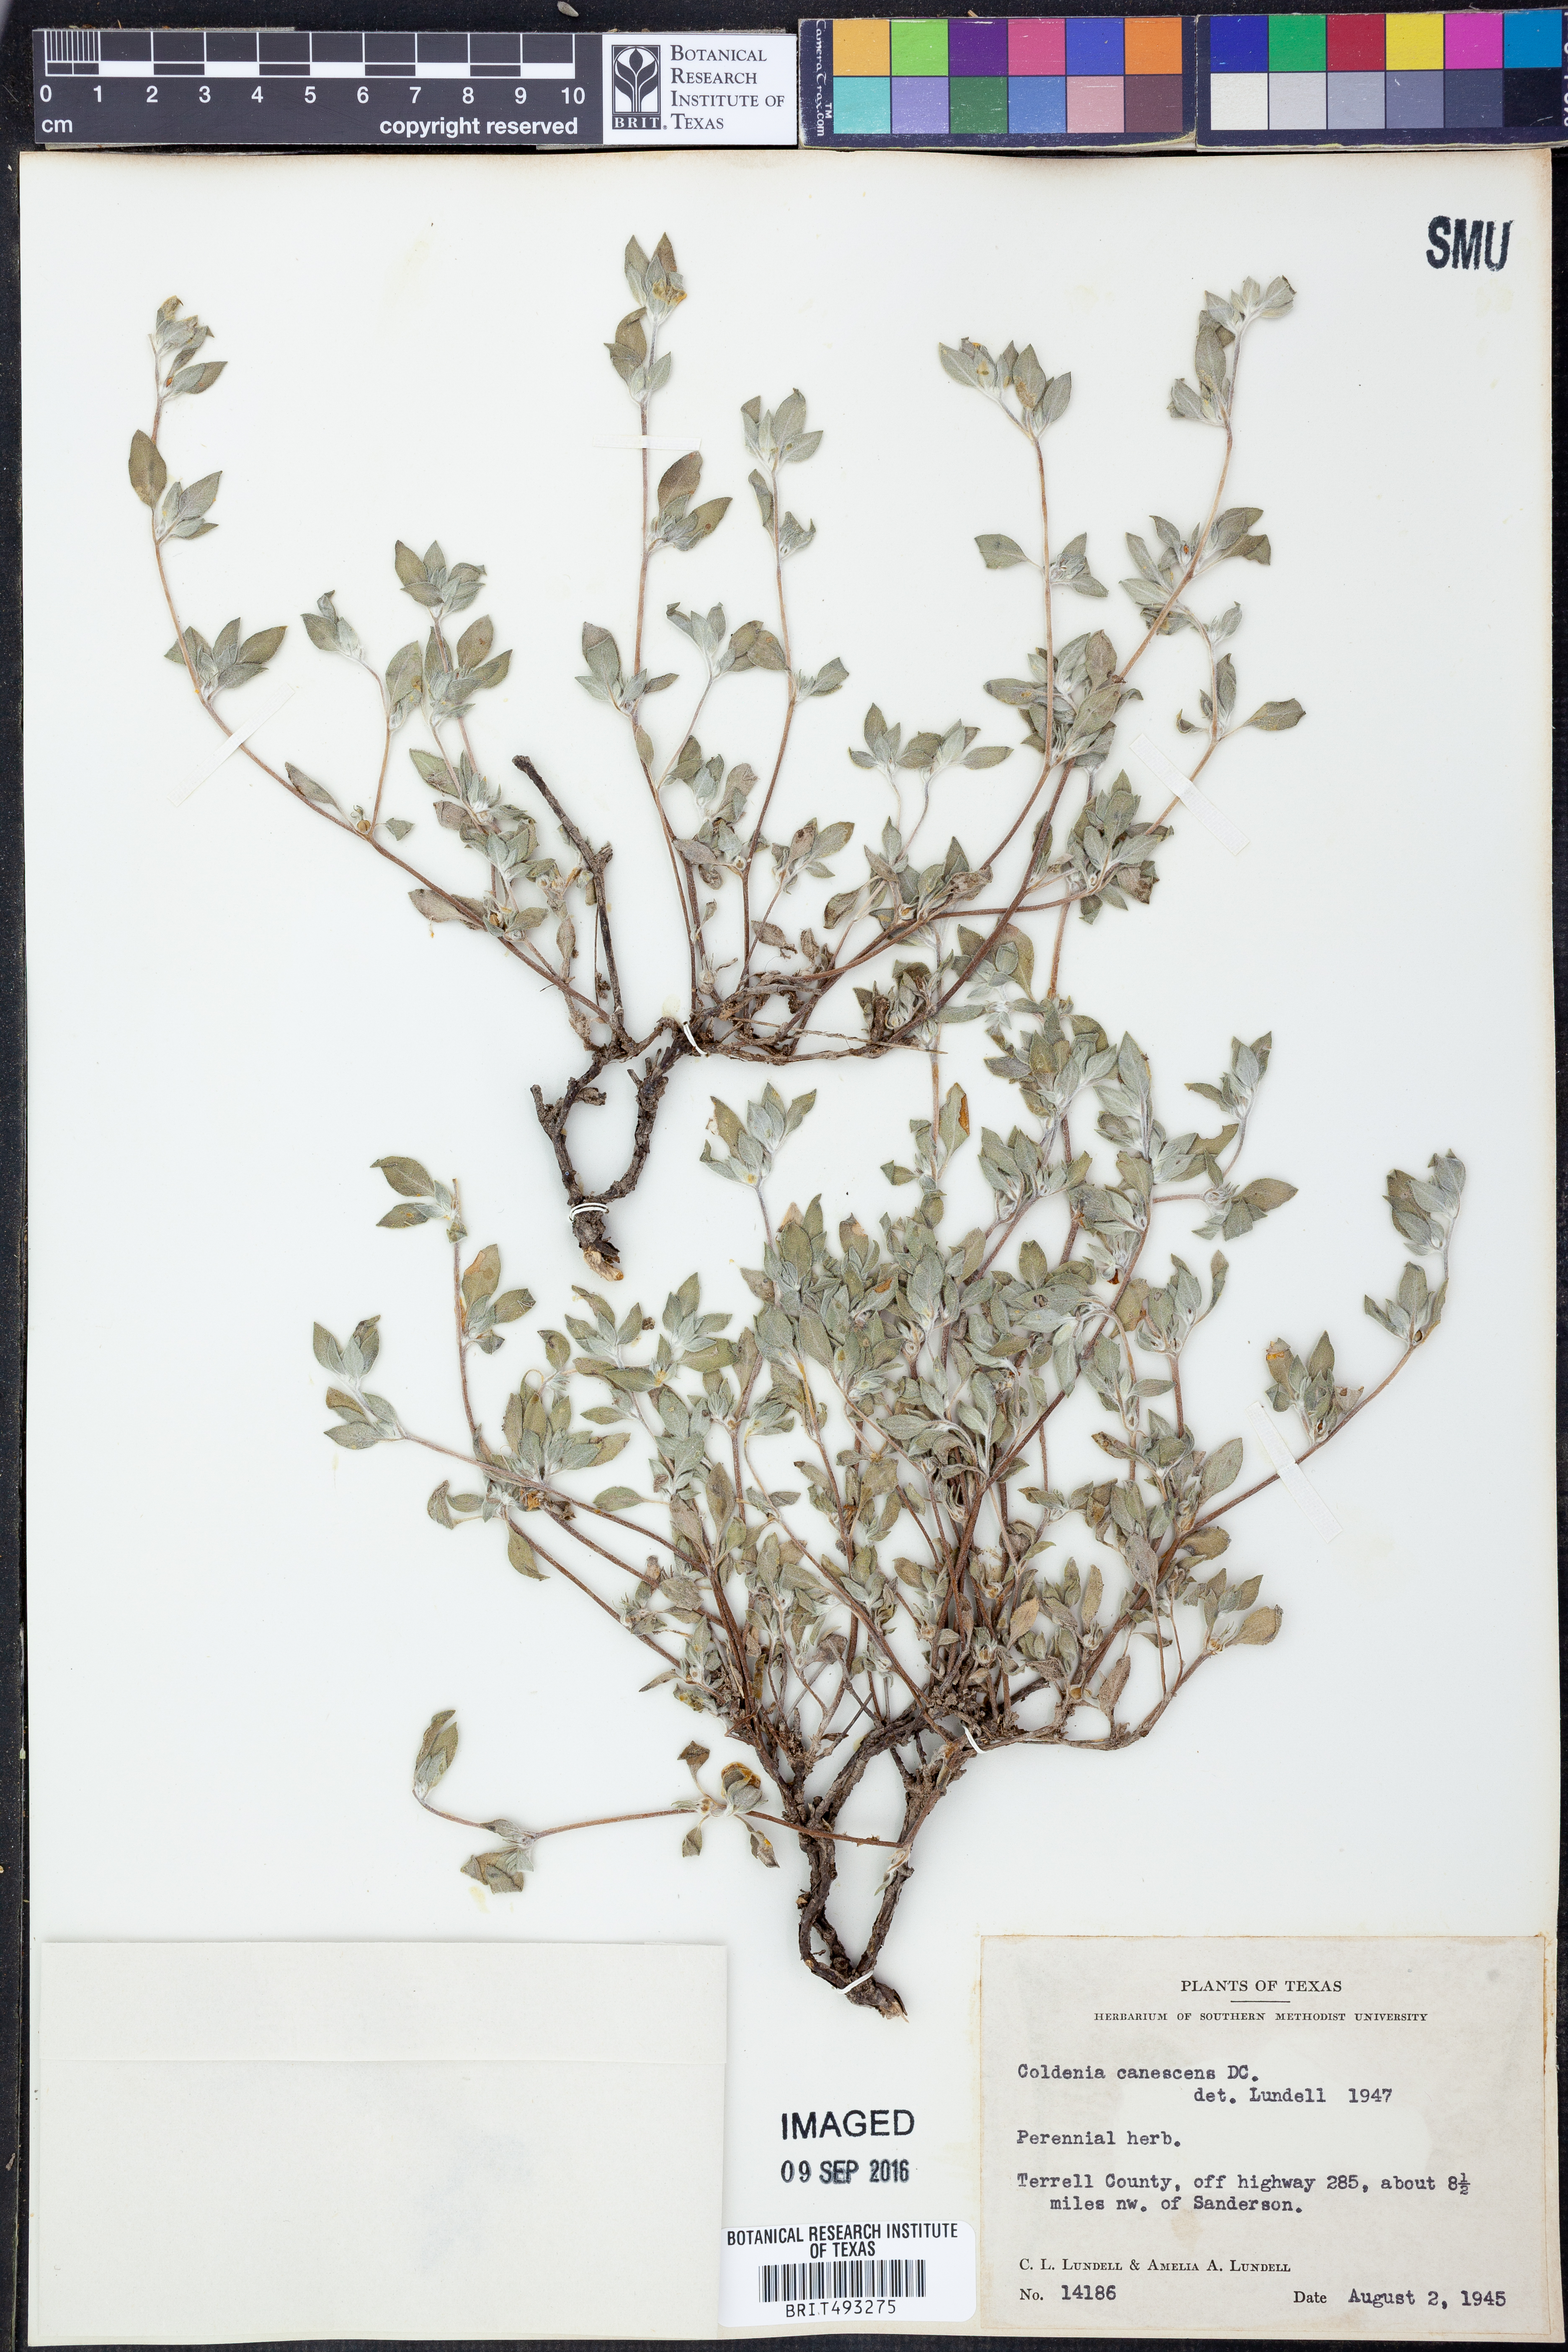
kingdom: Plantae
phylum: Tracheophyta
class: Magnoliopsida
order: Boraginales
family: Ehretiaceae
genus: Tiquilia
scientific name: Tiquilia canescens
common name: Hairy tiquilia
